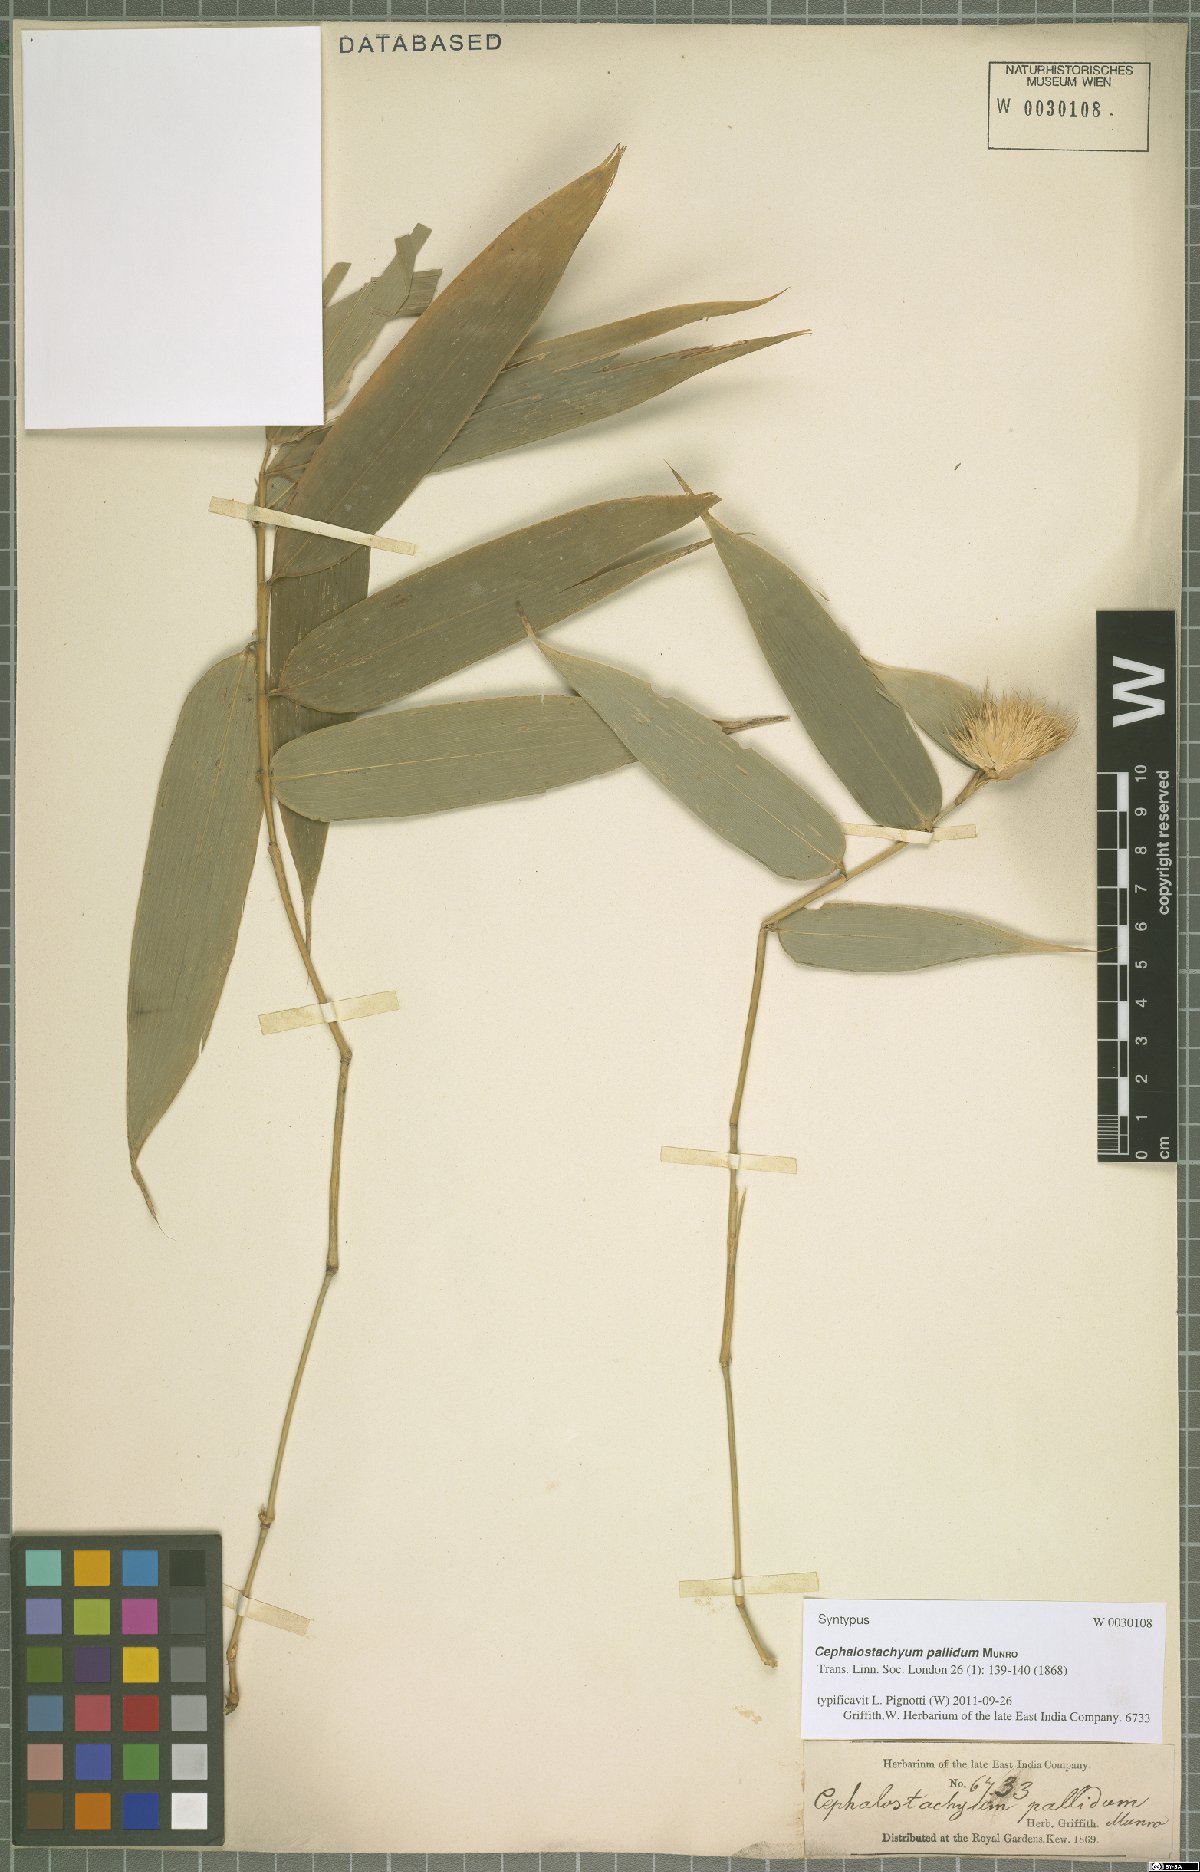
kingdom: Plantae
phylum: Tracheophyta
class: Liliopsida
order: Poales
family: Poaceae
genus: Cephalostachyum
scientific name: Cephalostachyum pallidum
